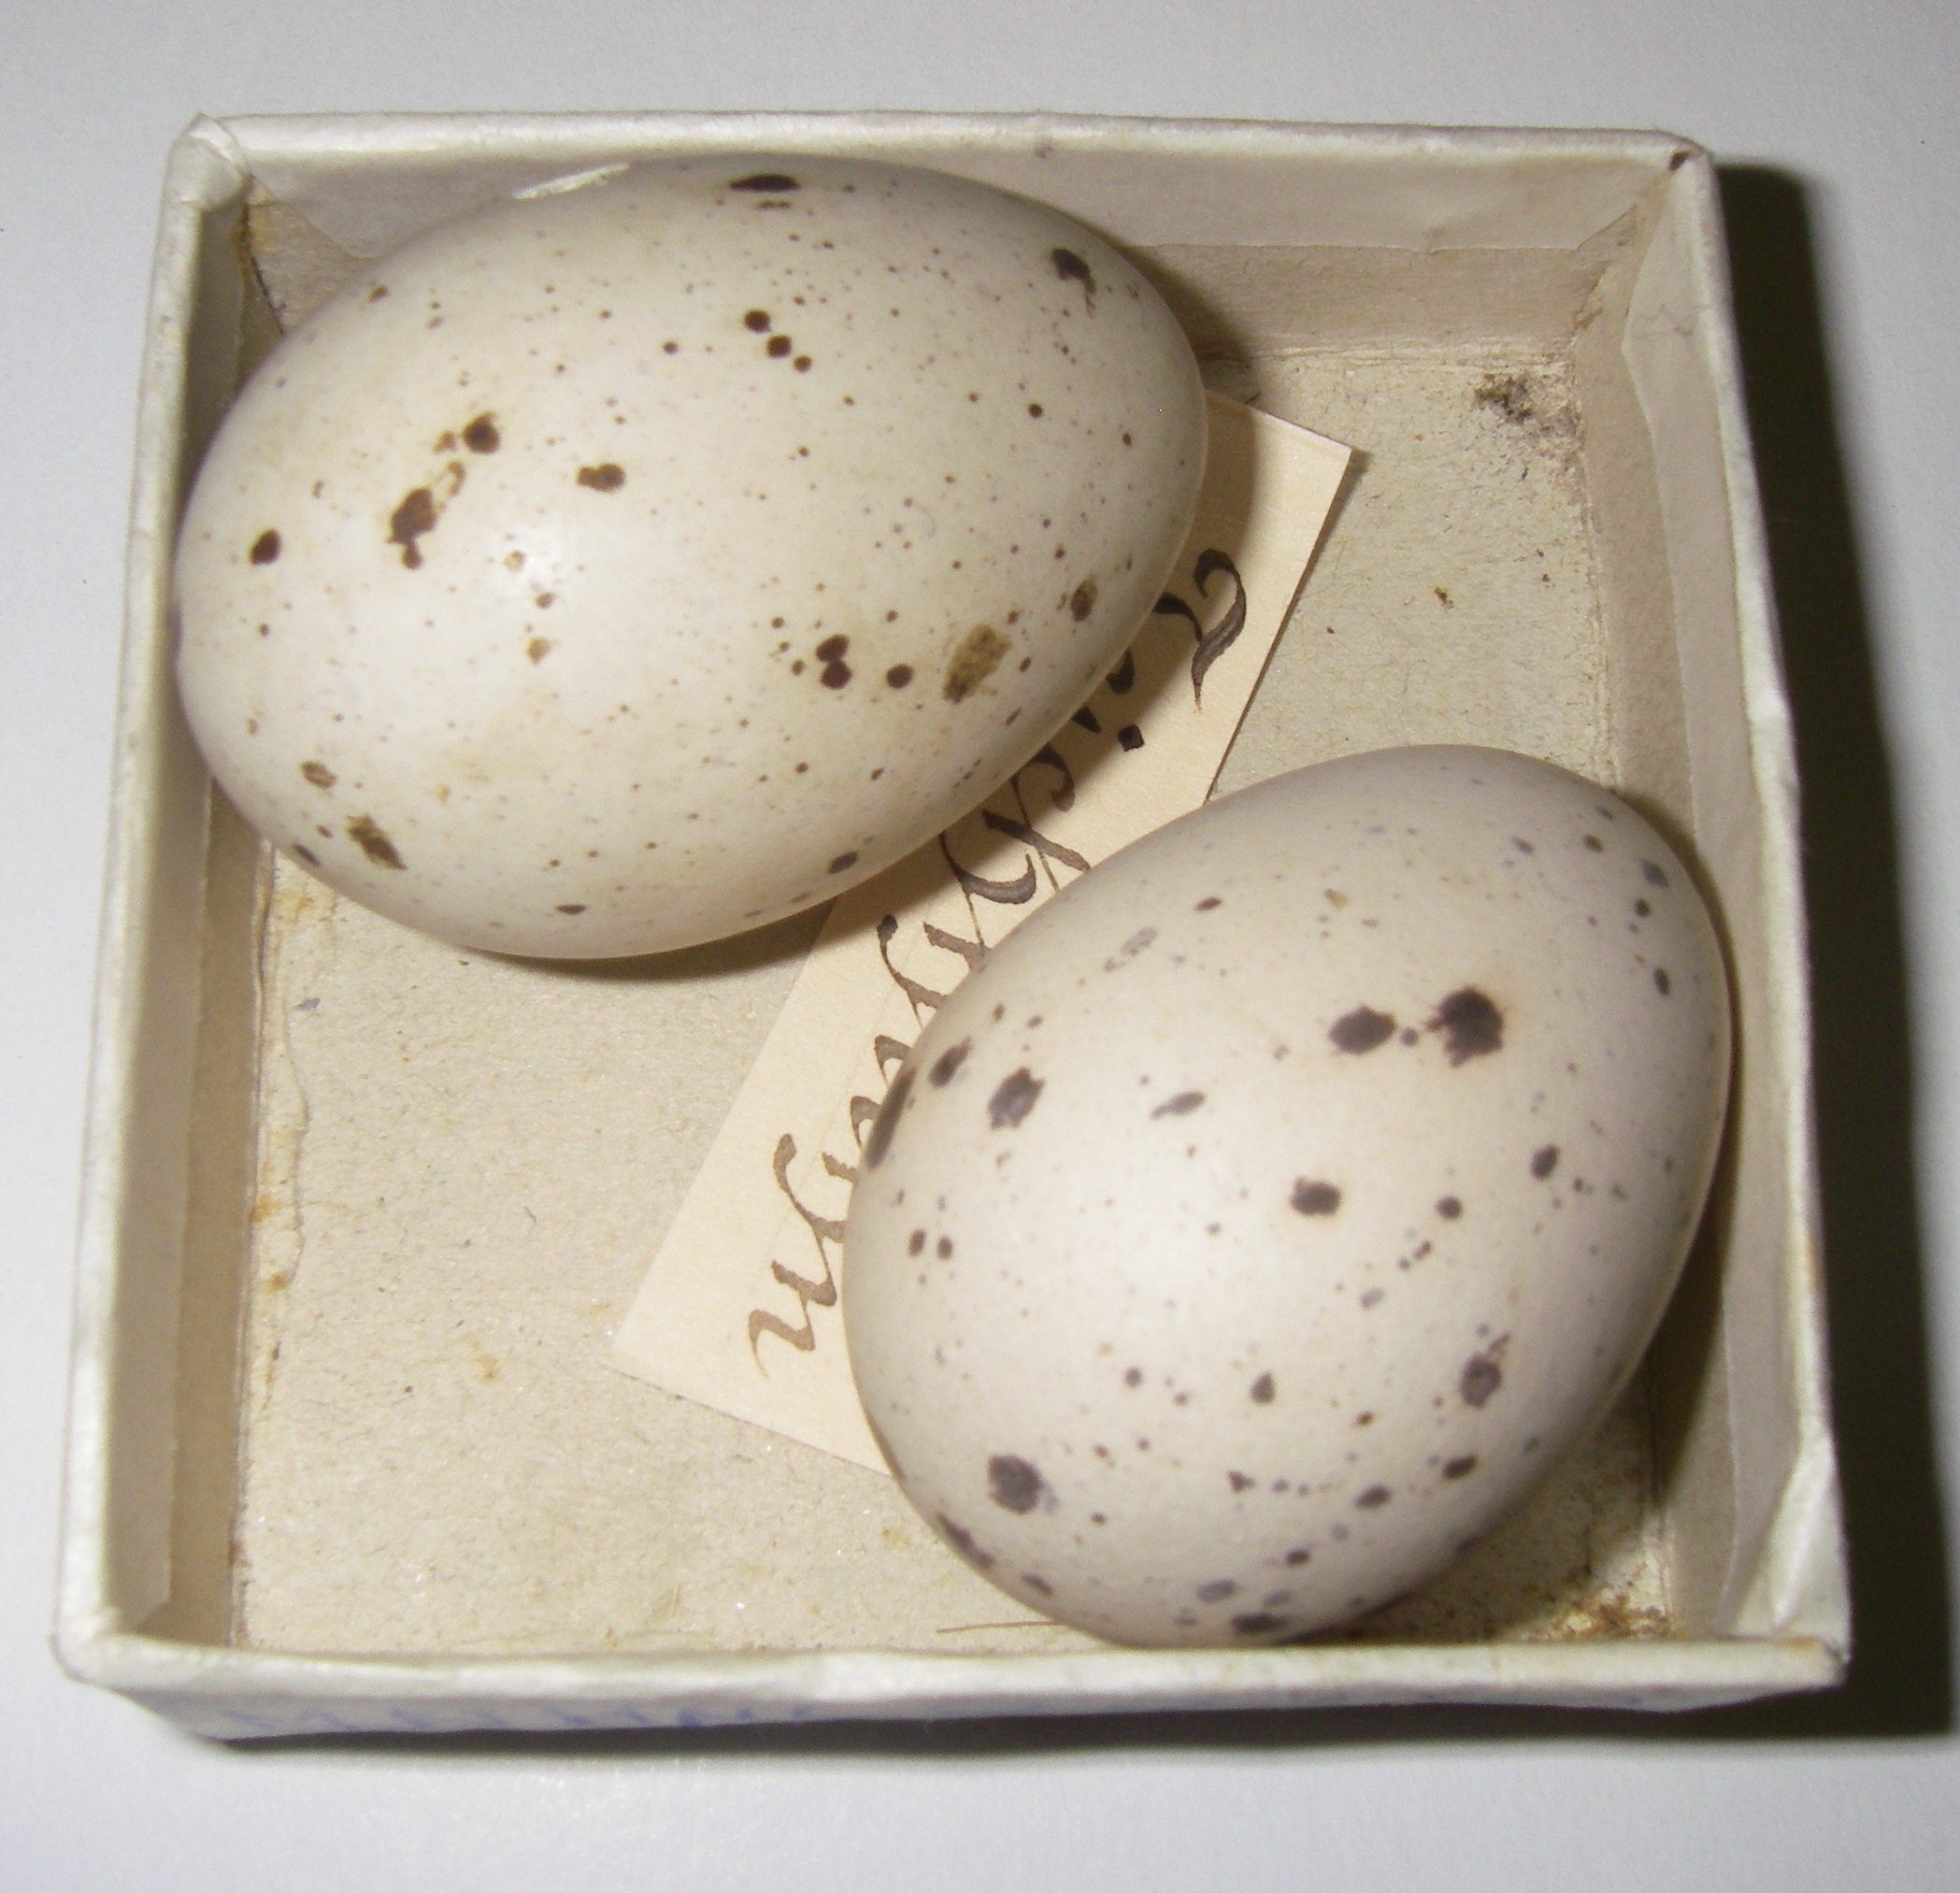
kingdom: Animalia
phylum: Chordata
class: Aves
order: Gruiformes
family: Rallidae
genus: Gallinula
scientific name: Gallinula chloropus
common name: Common moorhen
